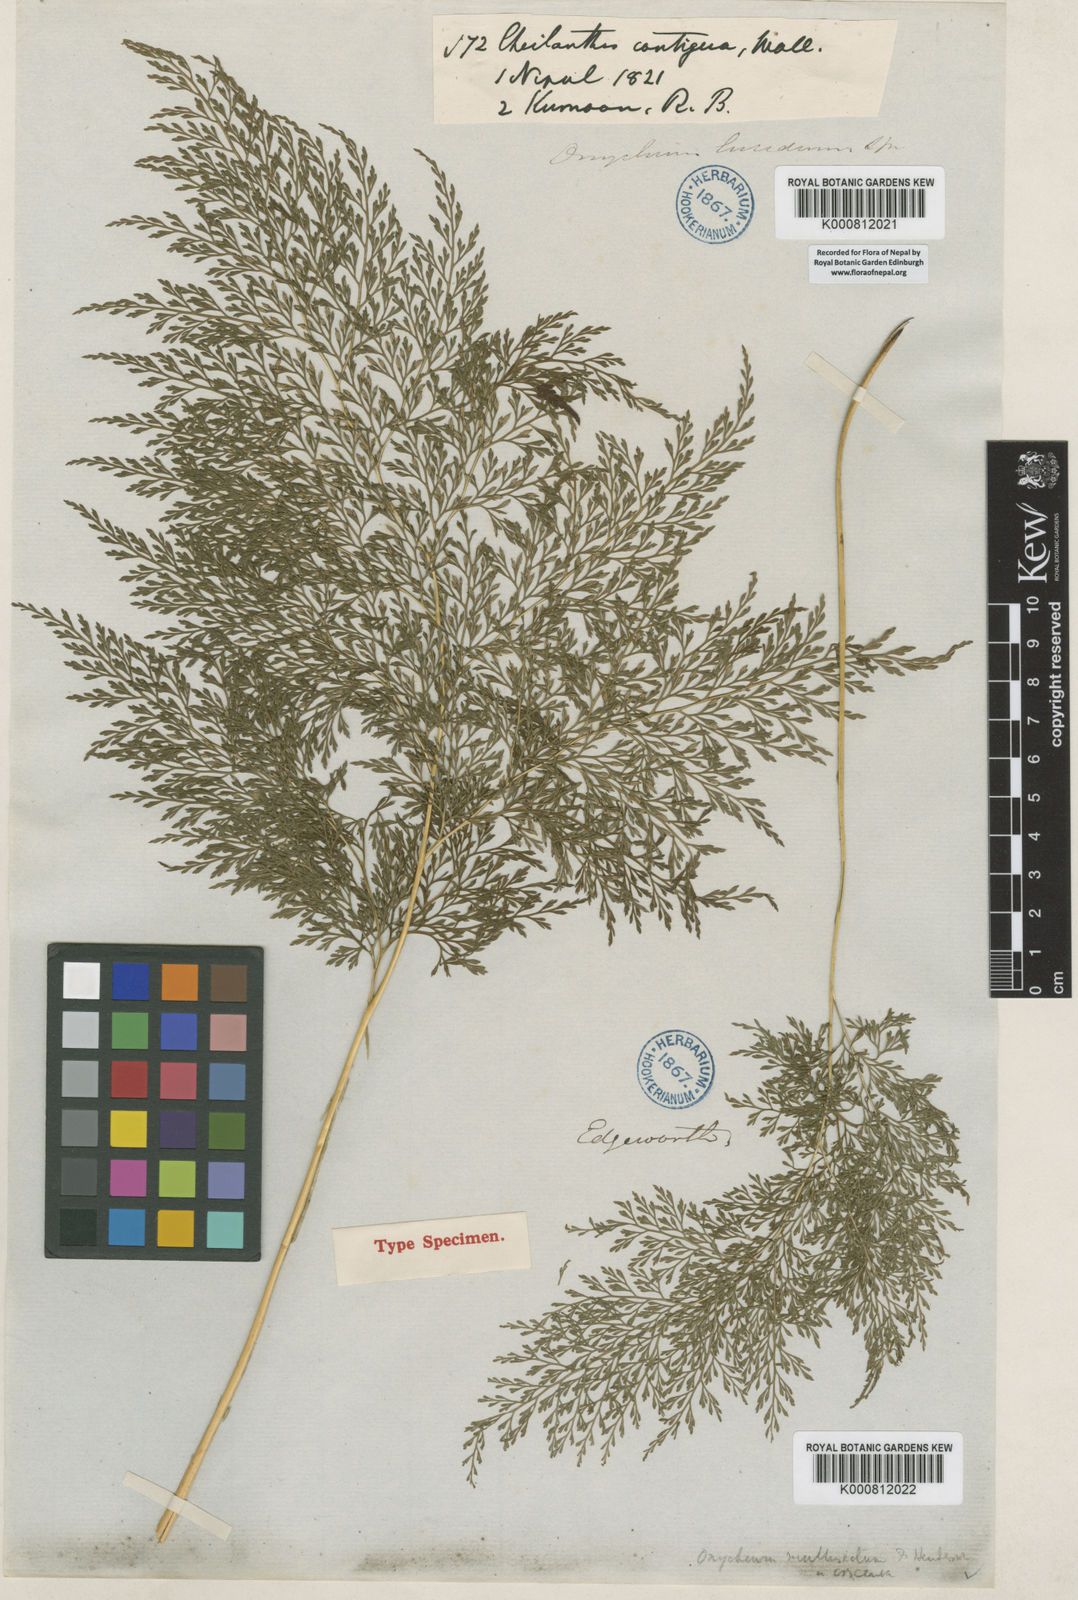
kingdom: Plantae
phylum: Tracheophyta
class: Polypodiopsida
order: Polypodiales
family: Pteridaceae
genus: Onychium
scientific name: Onychium lucidum
